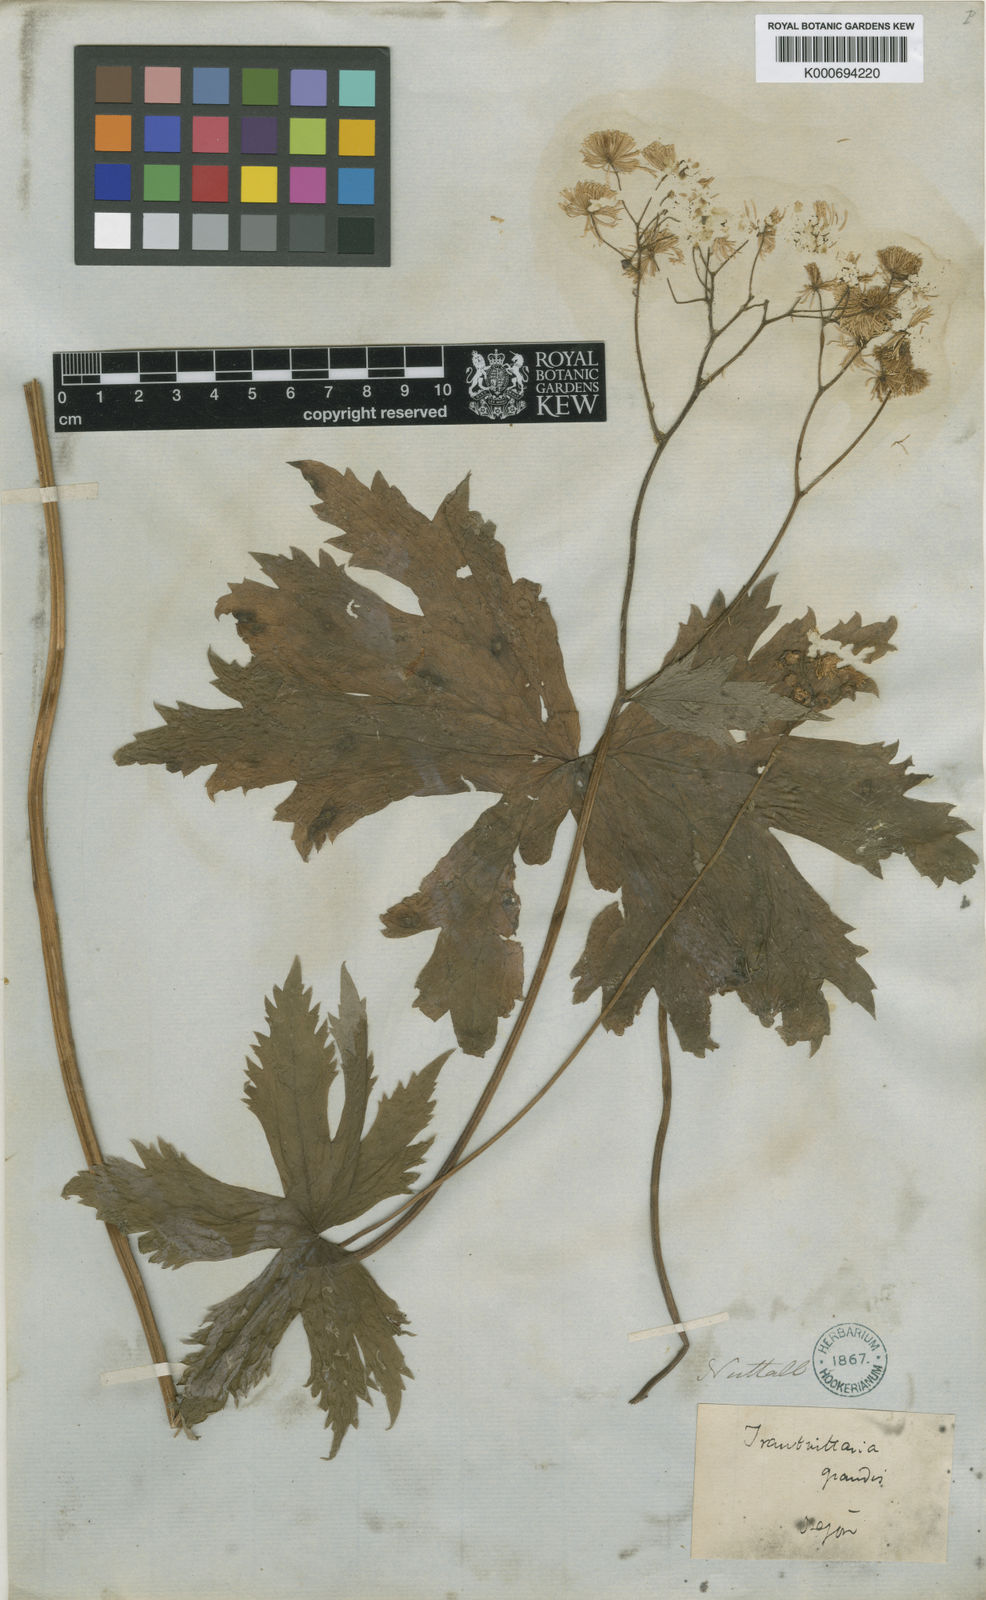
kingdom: Plantae
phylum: Tracheophyta
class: Magnoliopsida
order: Ranunculales
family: Ranunculaceae
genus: Trautvetteria
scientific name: Trautvetteria carolinensis
